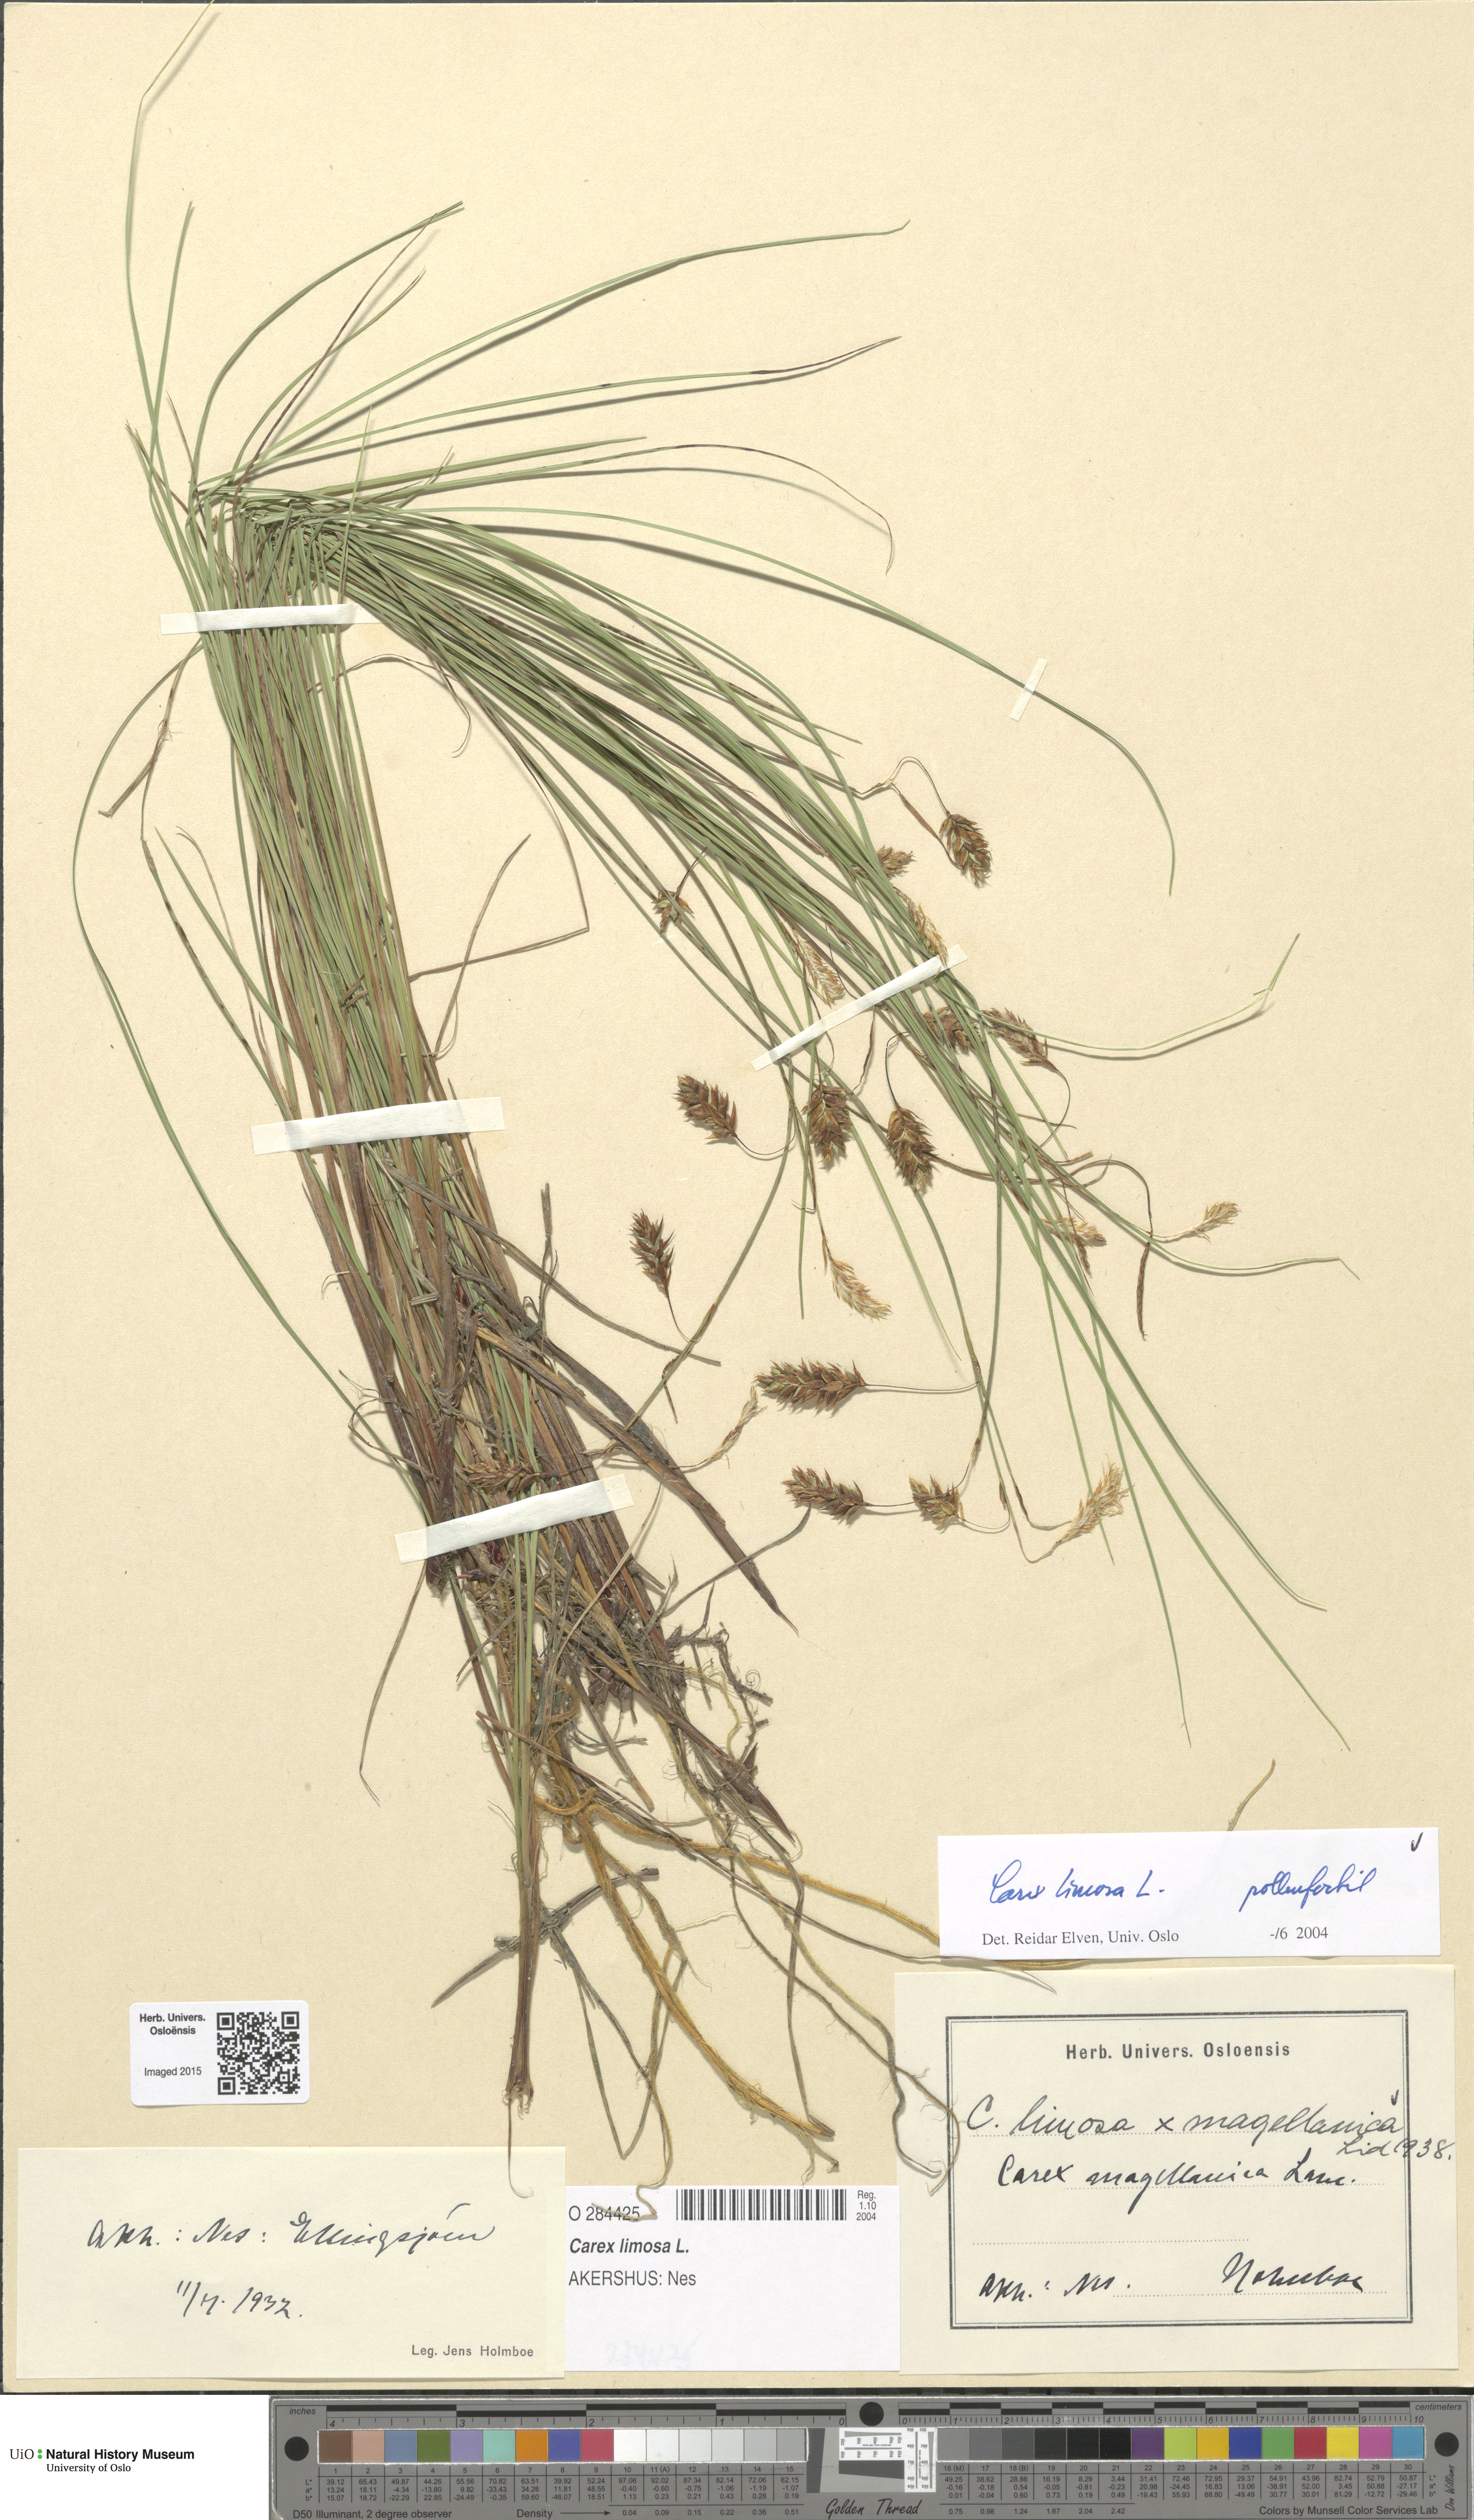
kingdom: Plantae
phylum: Tracheophyta
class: Liliopsida
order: Poales
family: Cyperaceae
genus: Carex
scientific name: Carex limosa
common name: Bog sedge
